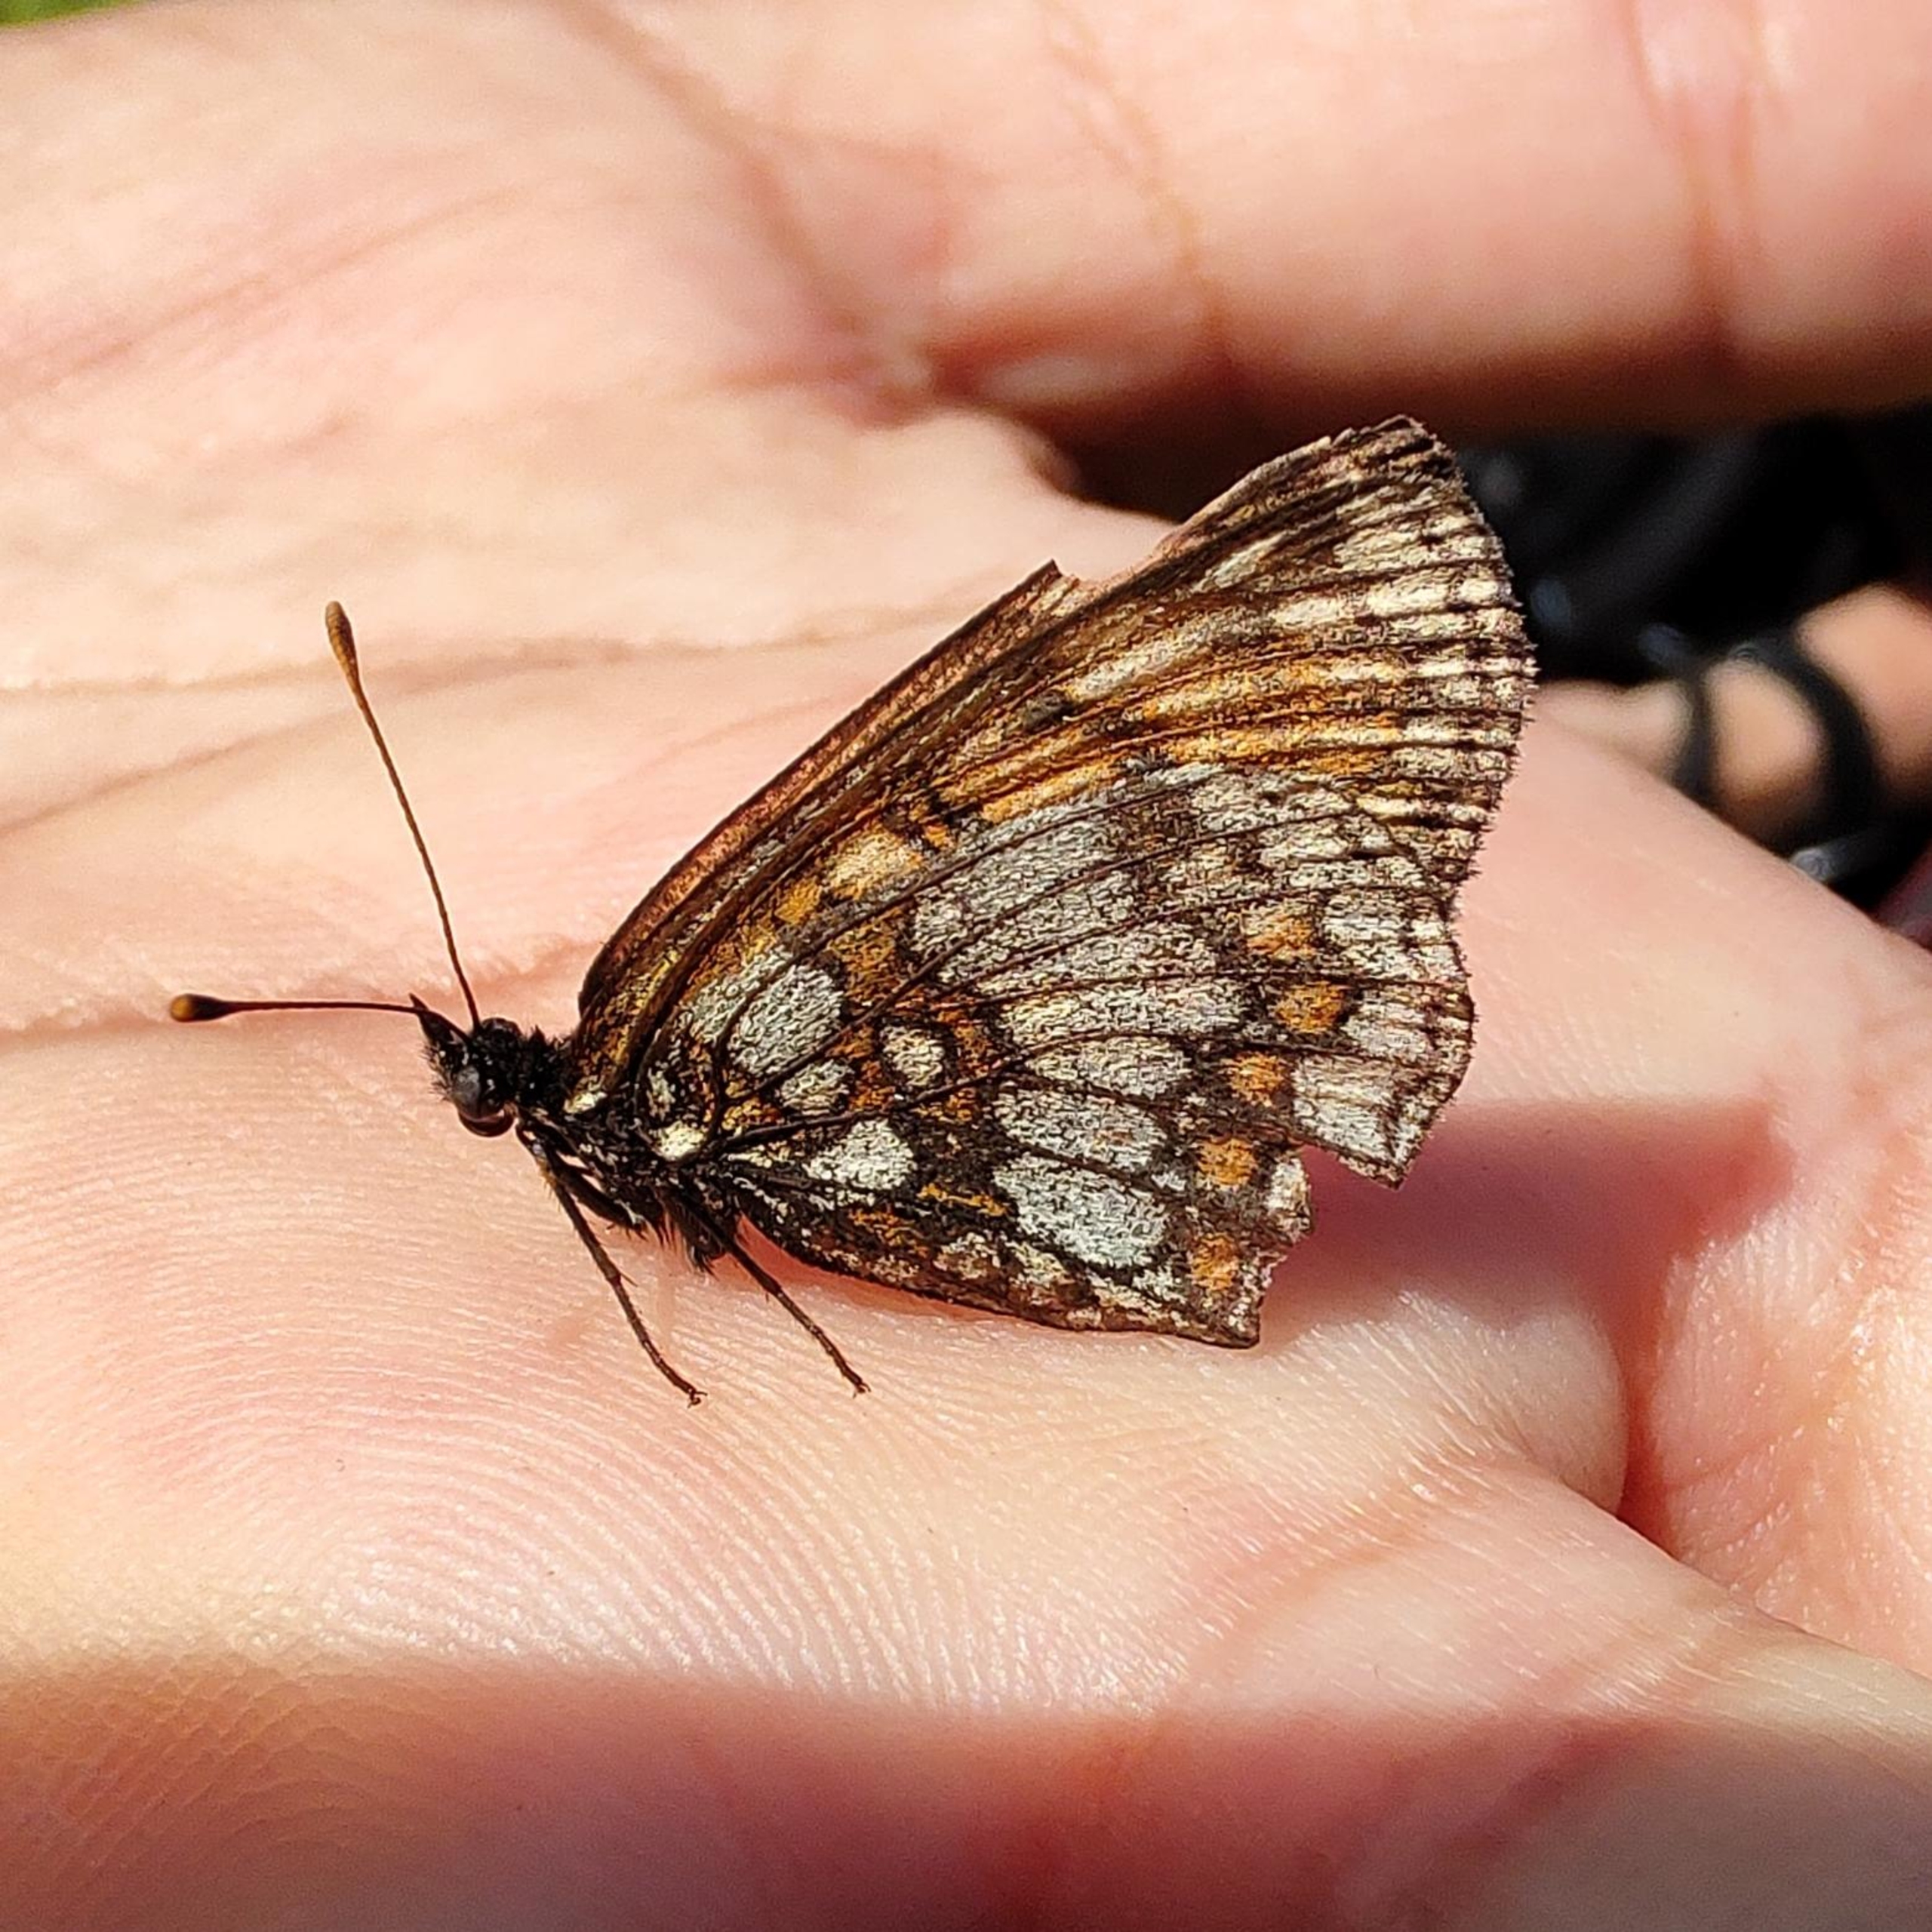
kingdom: Animalia
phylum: Arthropoda
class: Insecta
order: Lepidoptera
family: Nymphalidae
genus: Mellicta
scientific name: Mellicta athalia
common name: Brun pletvinge
